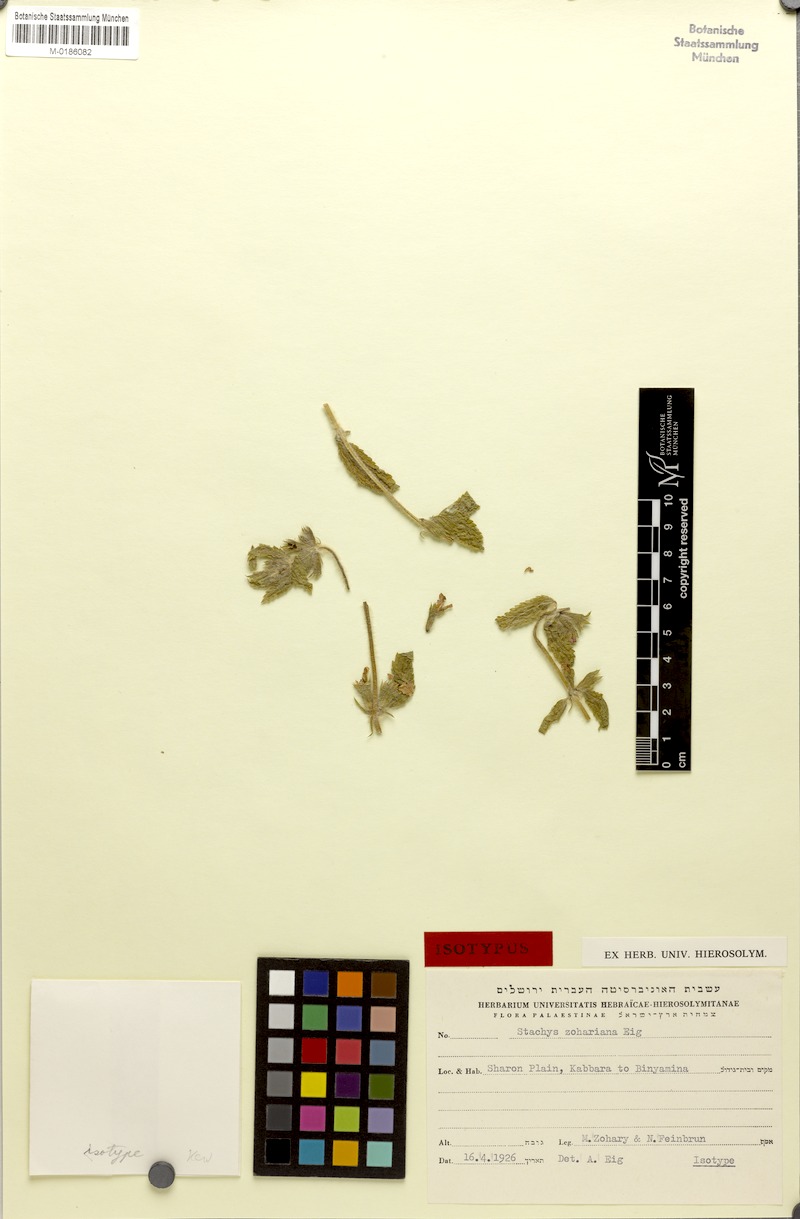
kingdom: Plantae
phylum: Tracheophyta
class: Magnoliopsida
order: Lamiales
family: Lamiaceae
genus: Stachys
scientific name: Stachys zoharyana
